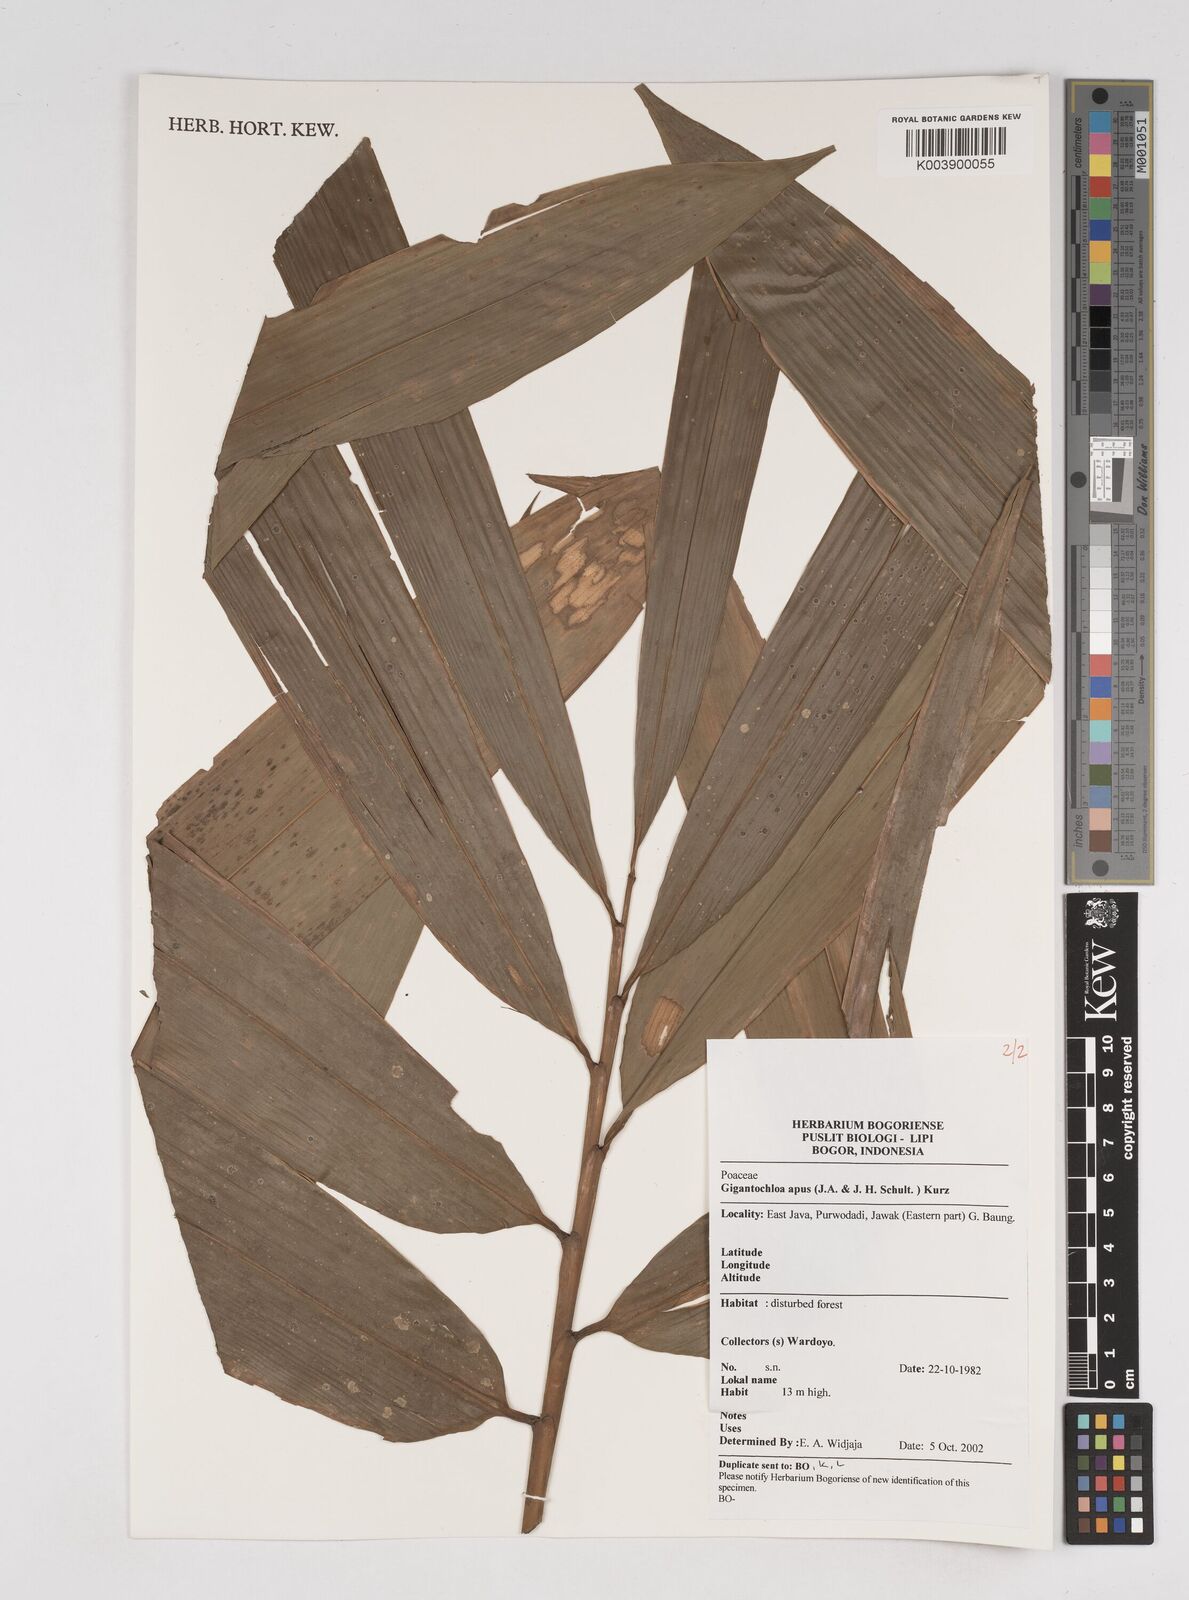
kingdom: Plantae
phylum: Tracheophyta
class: Liliopsida
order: Poales
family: Poaceae
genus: Gigantochloa
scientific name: Gigantochloa apus
